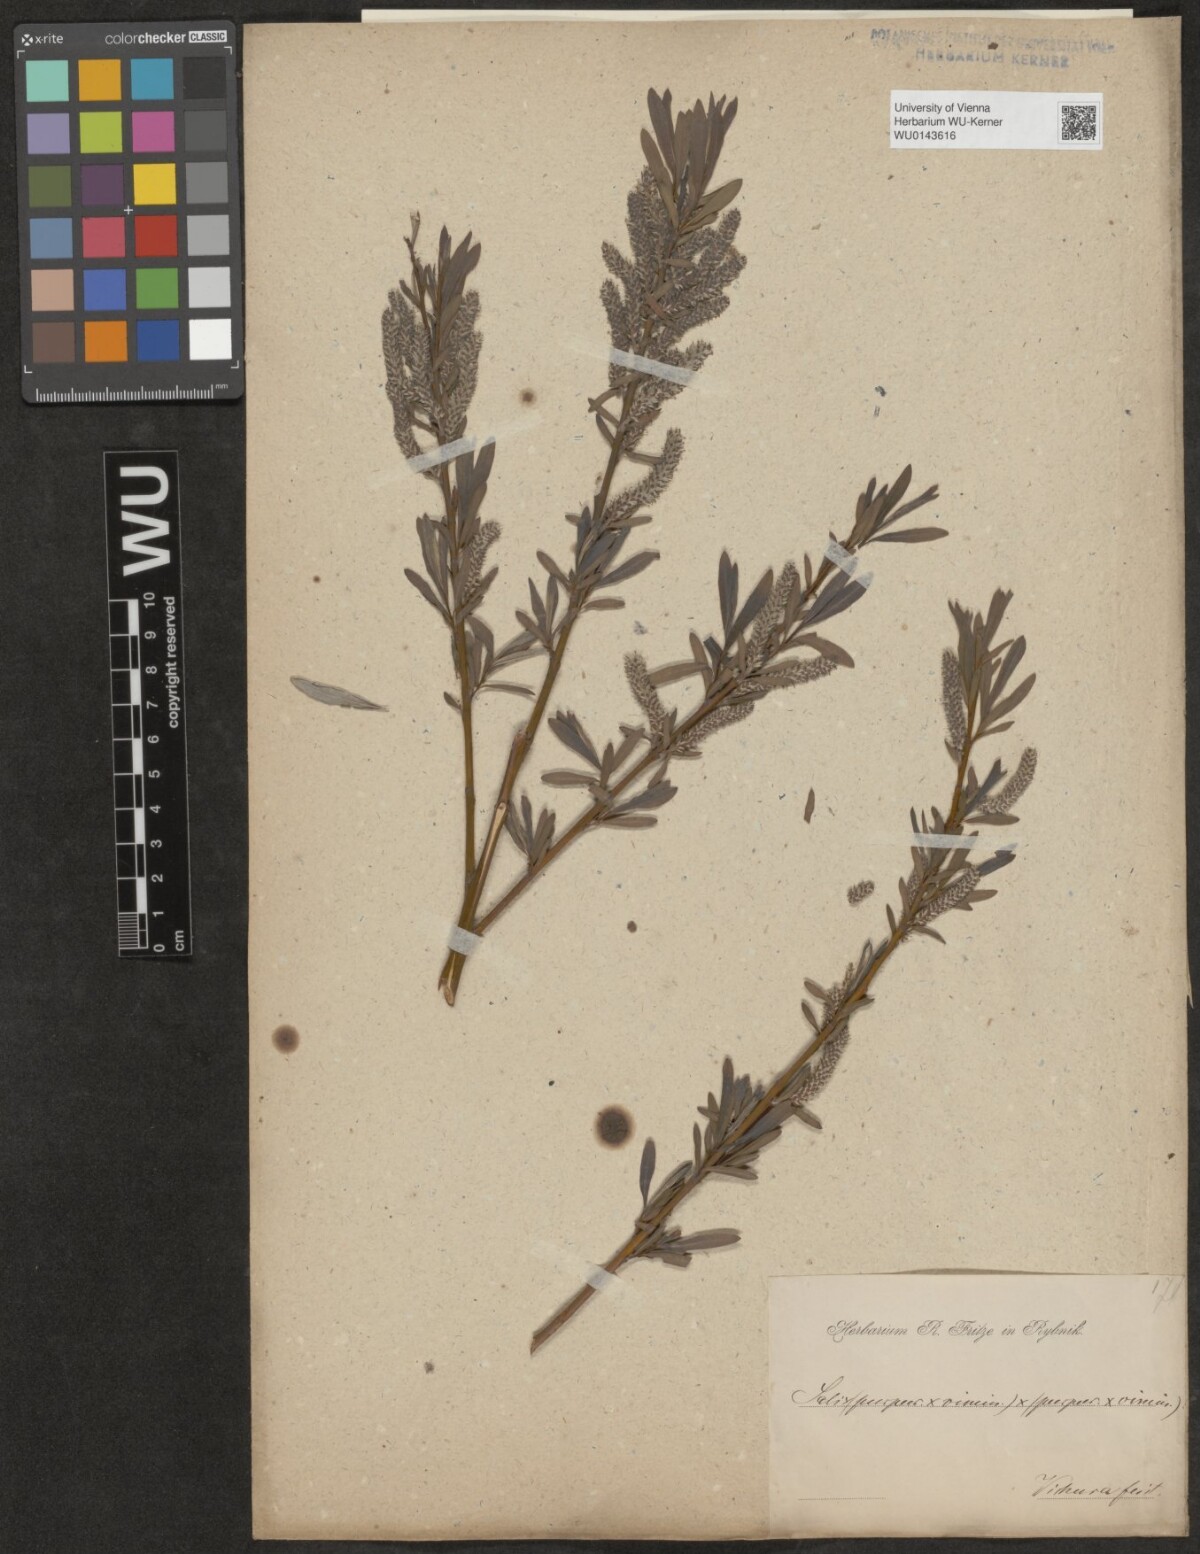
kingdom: Plantae
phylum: Tracheophyta
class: Magnoliopsida
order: Malpighiales
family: Salicaceae
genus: Salix
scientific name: Salix
